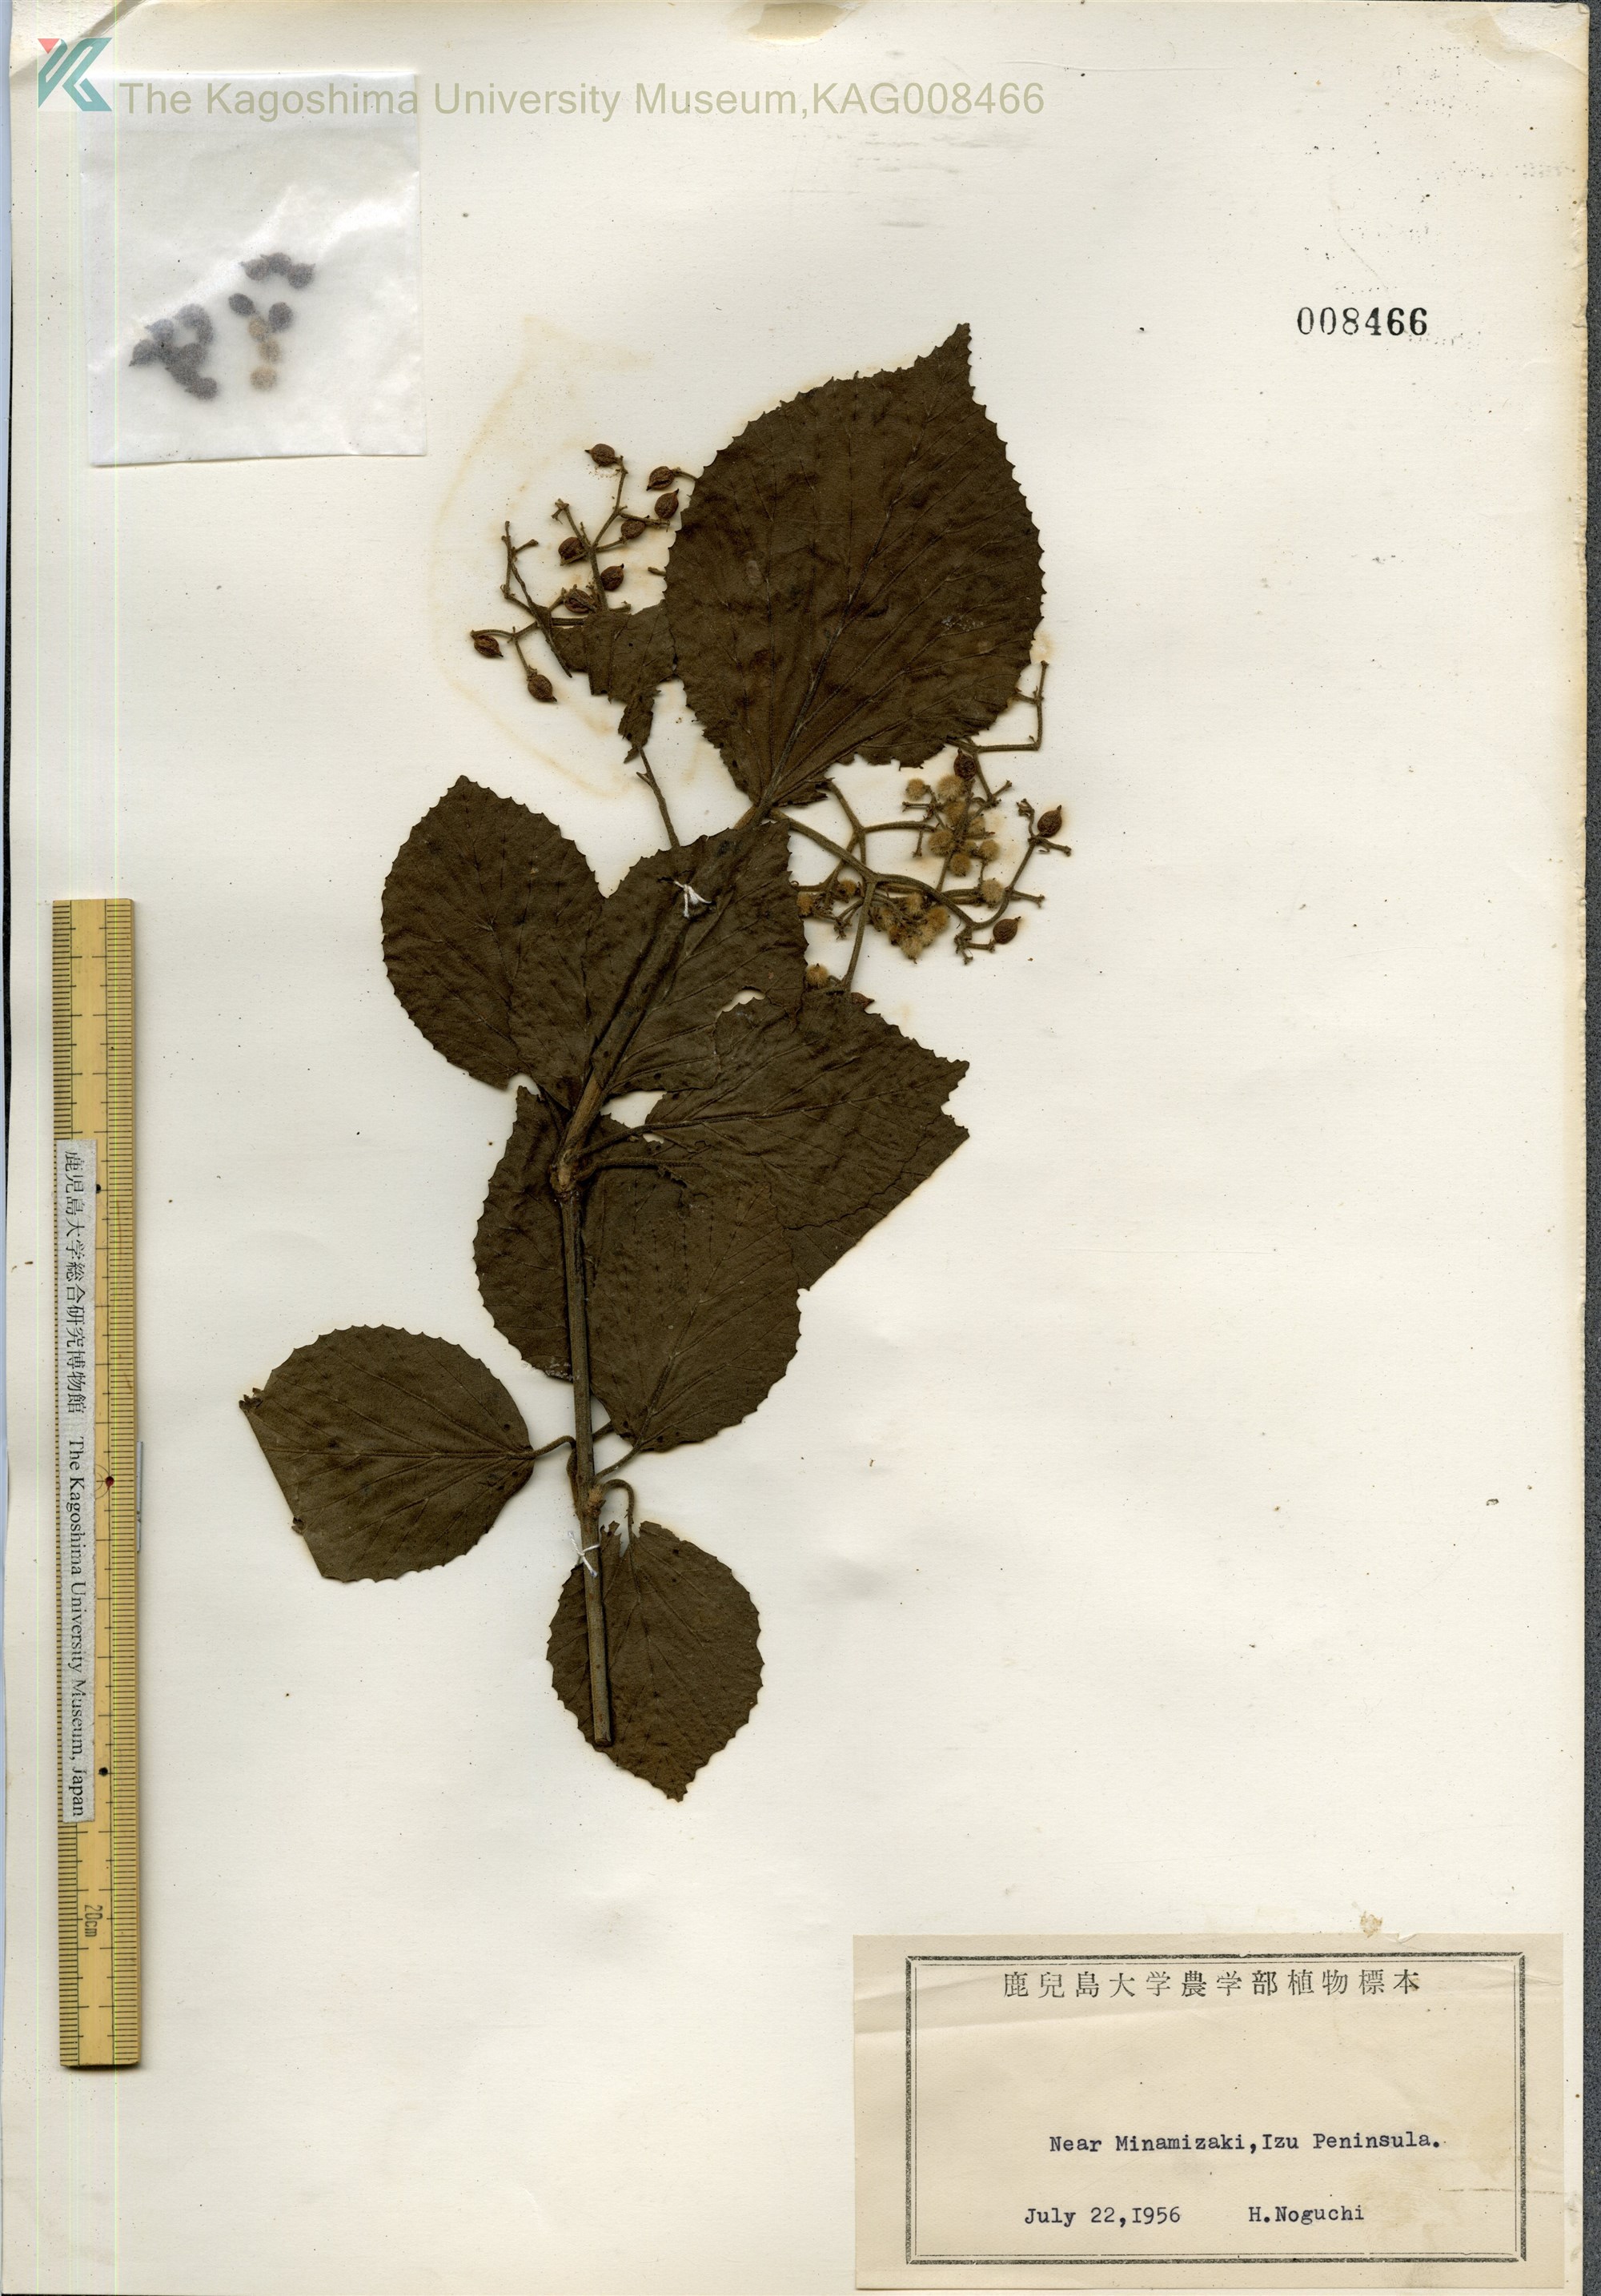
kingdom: Plantae
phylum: Tracheophyta
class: Magnoliopsida
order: Dipsacales
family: Viburnaceae
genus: Viburnum
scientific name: Viburnum dilatatum
